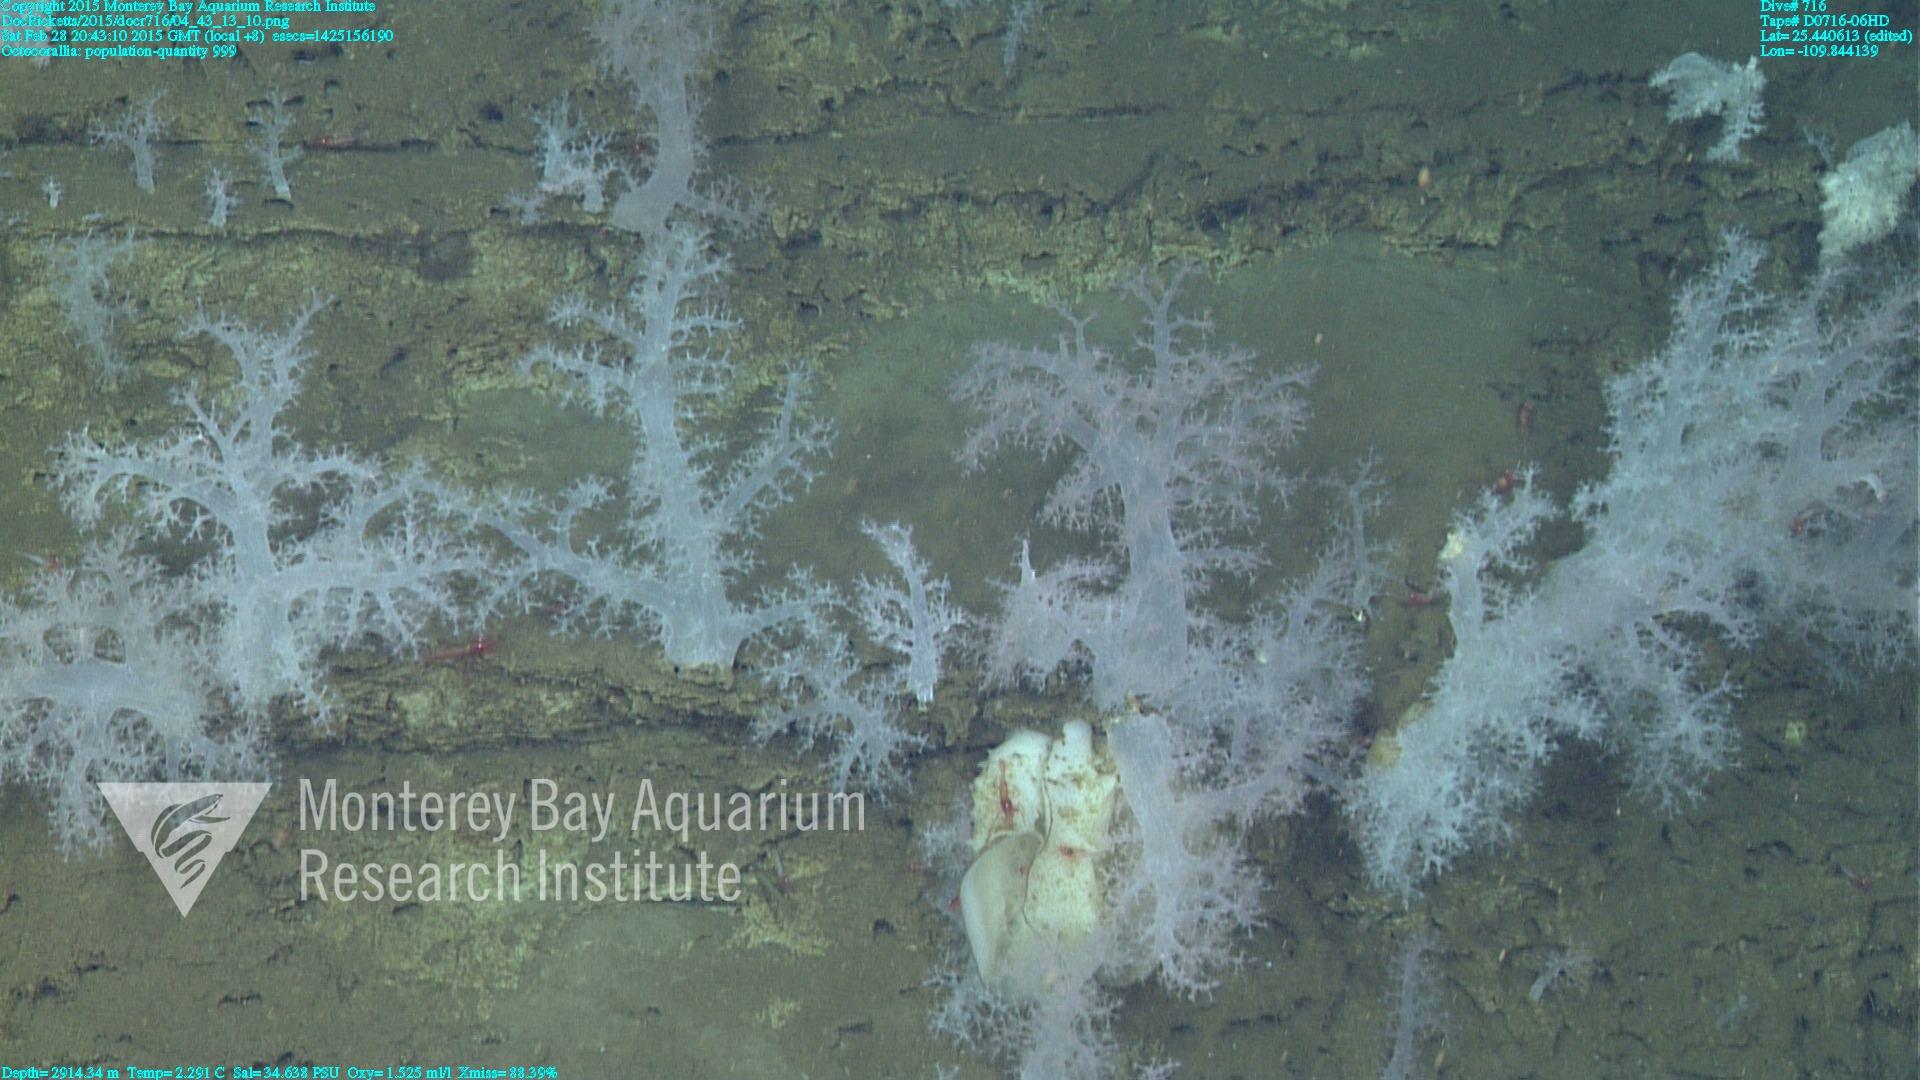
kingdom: Animalia
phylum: Cnidaria
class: Anthozoa
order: Malacalcyonacea
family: Alcyoniidae
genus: Gersemia
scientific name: Gersemia juliepackardae
